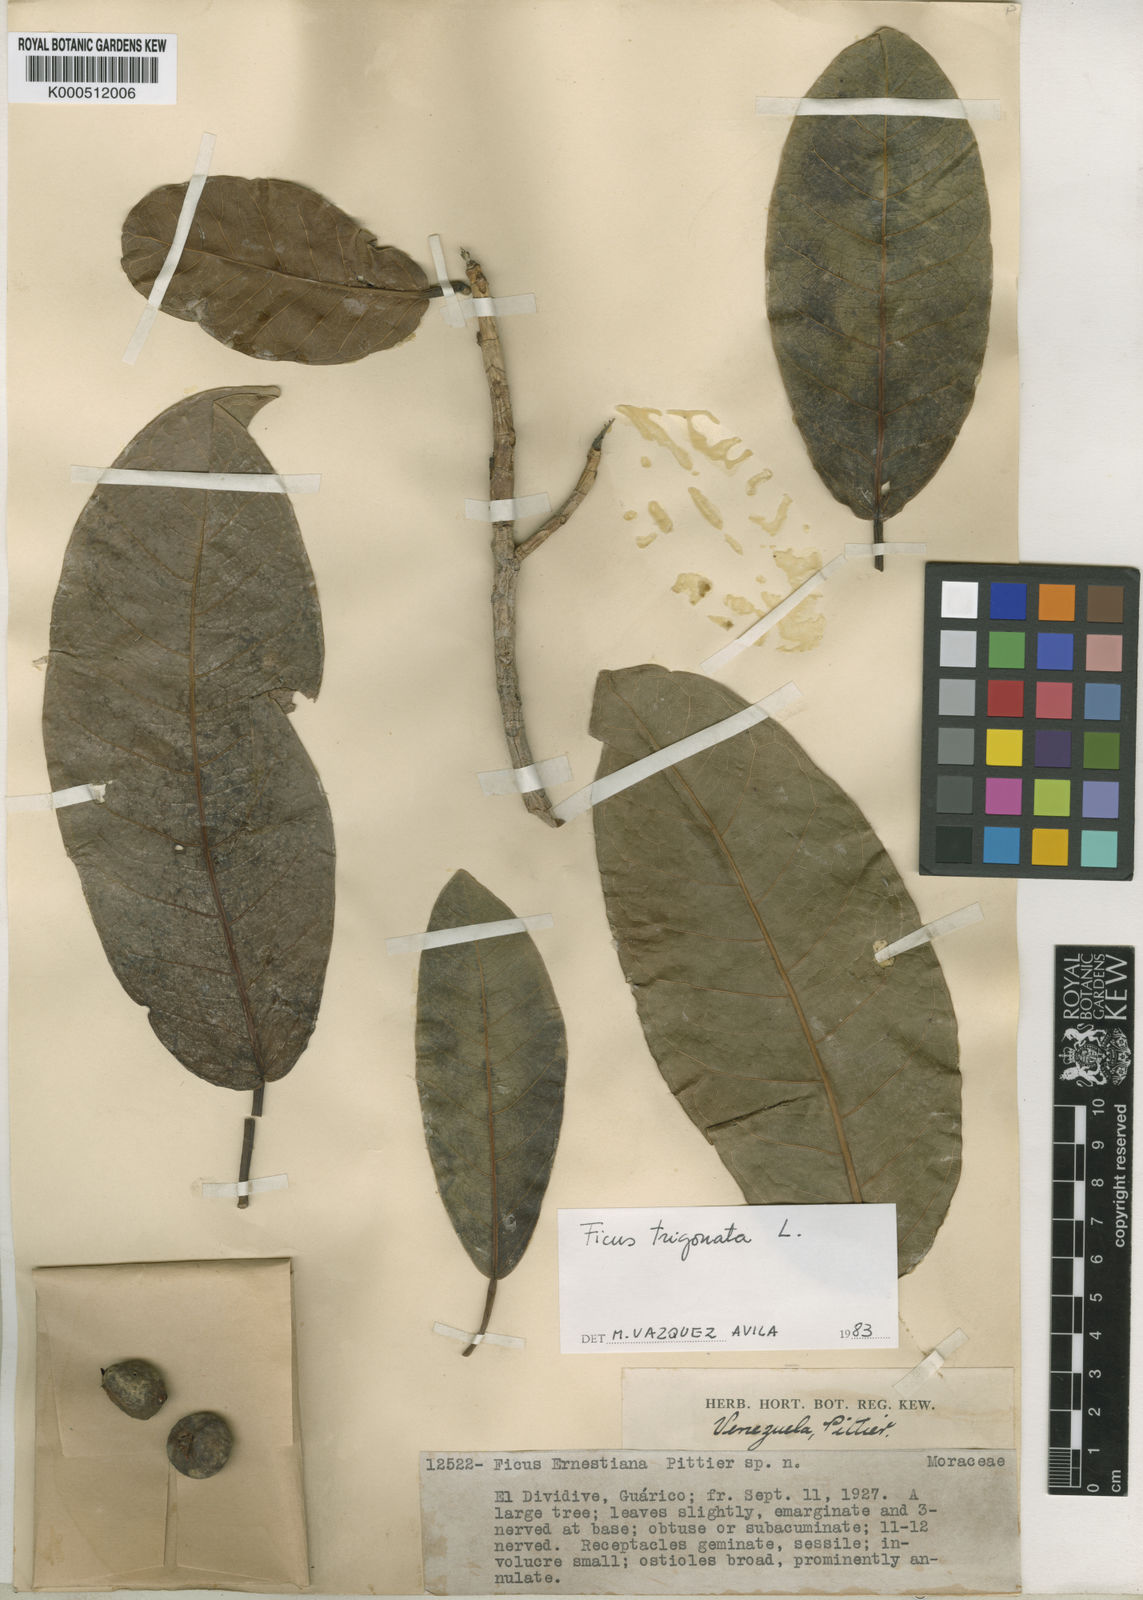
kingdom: Plantae
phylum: Tracheophyta
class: Magnoliopsida
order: Rosales
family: Moraceae
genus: Ficus
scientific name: Ficus trigonata
